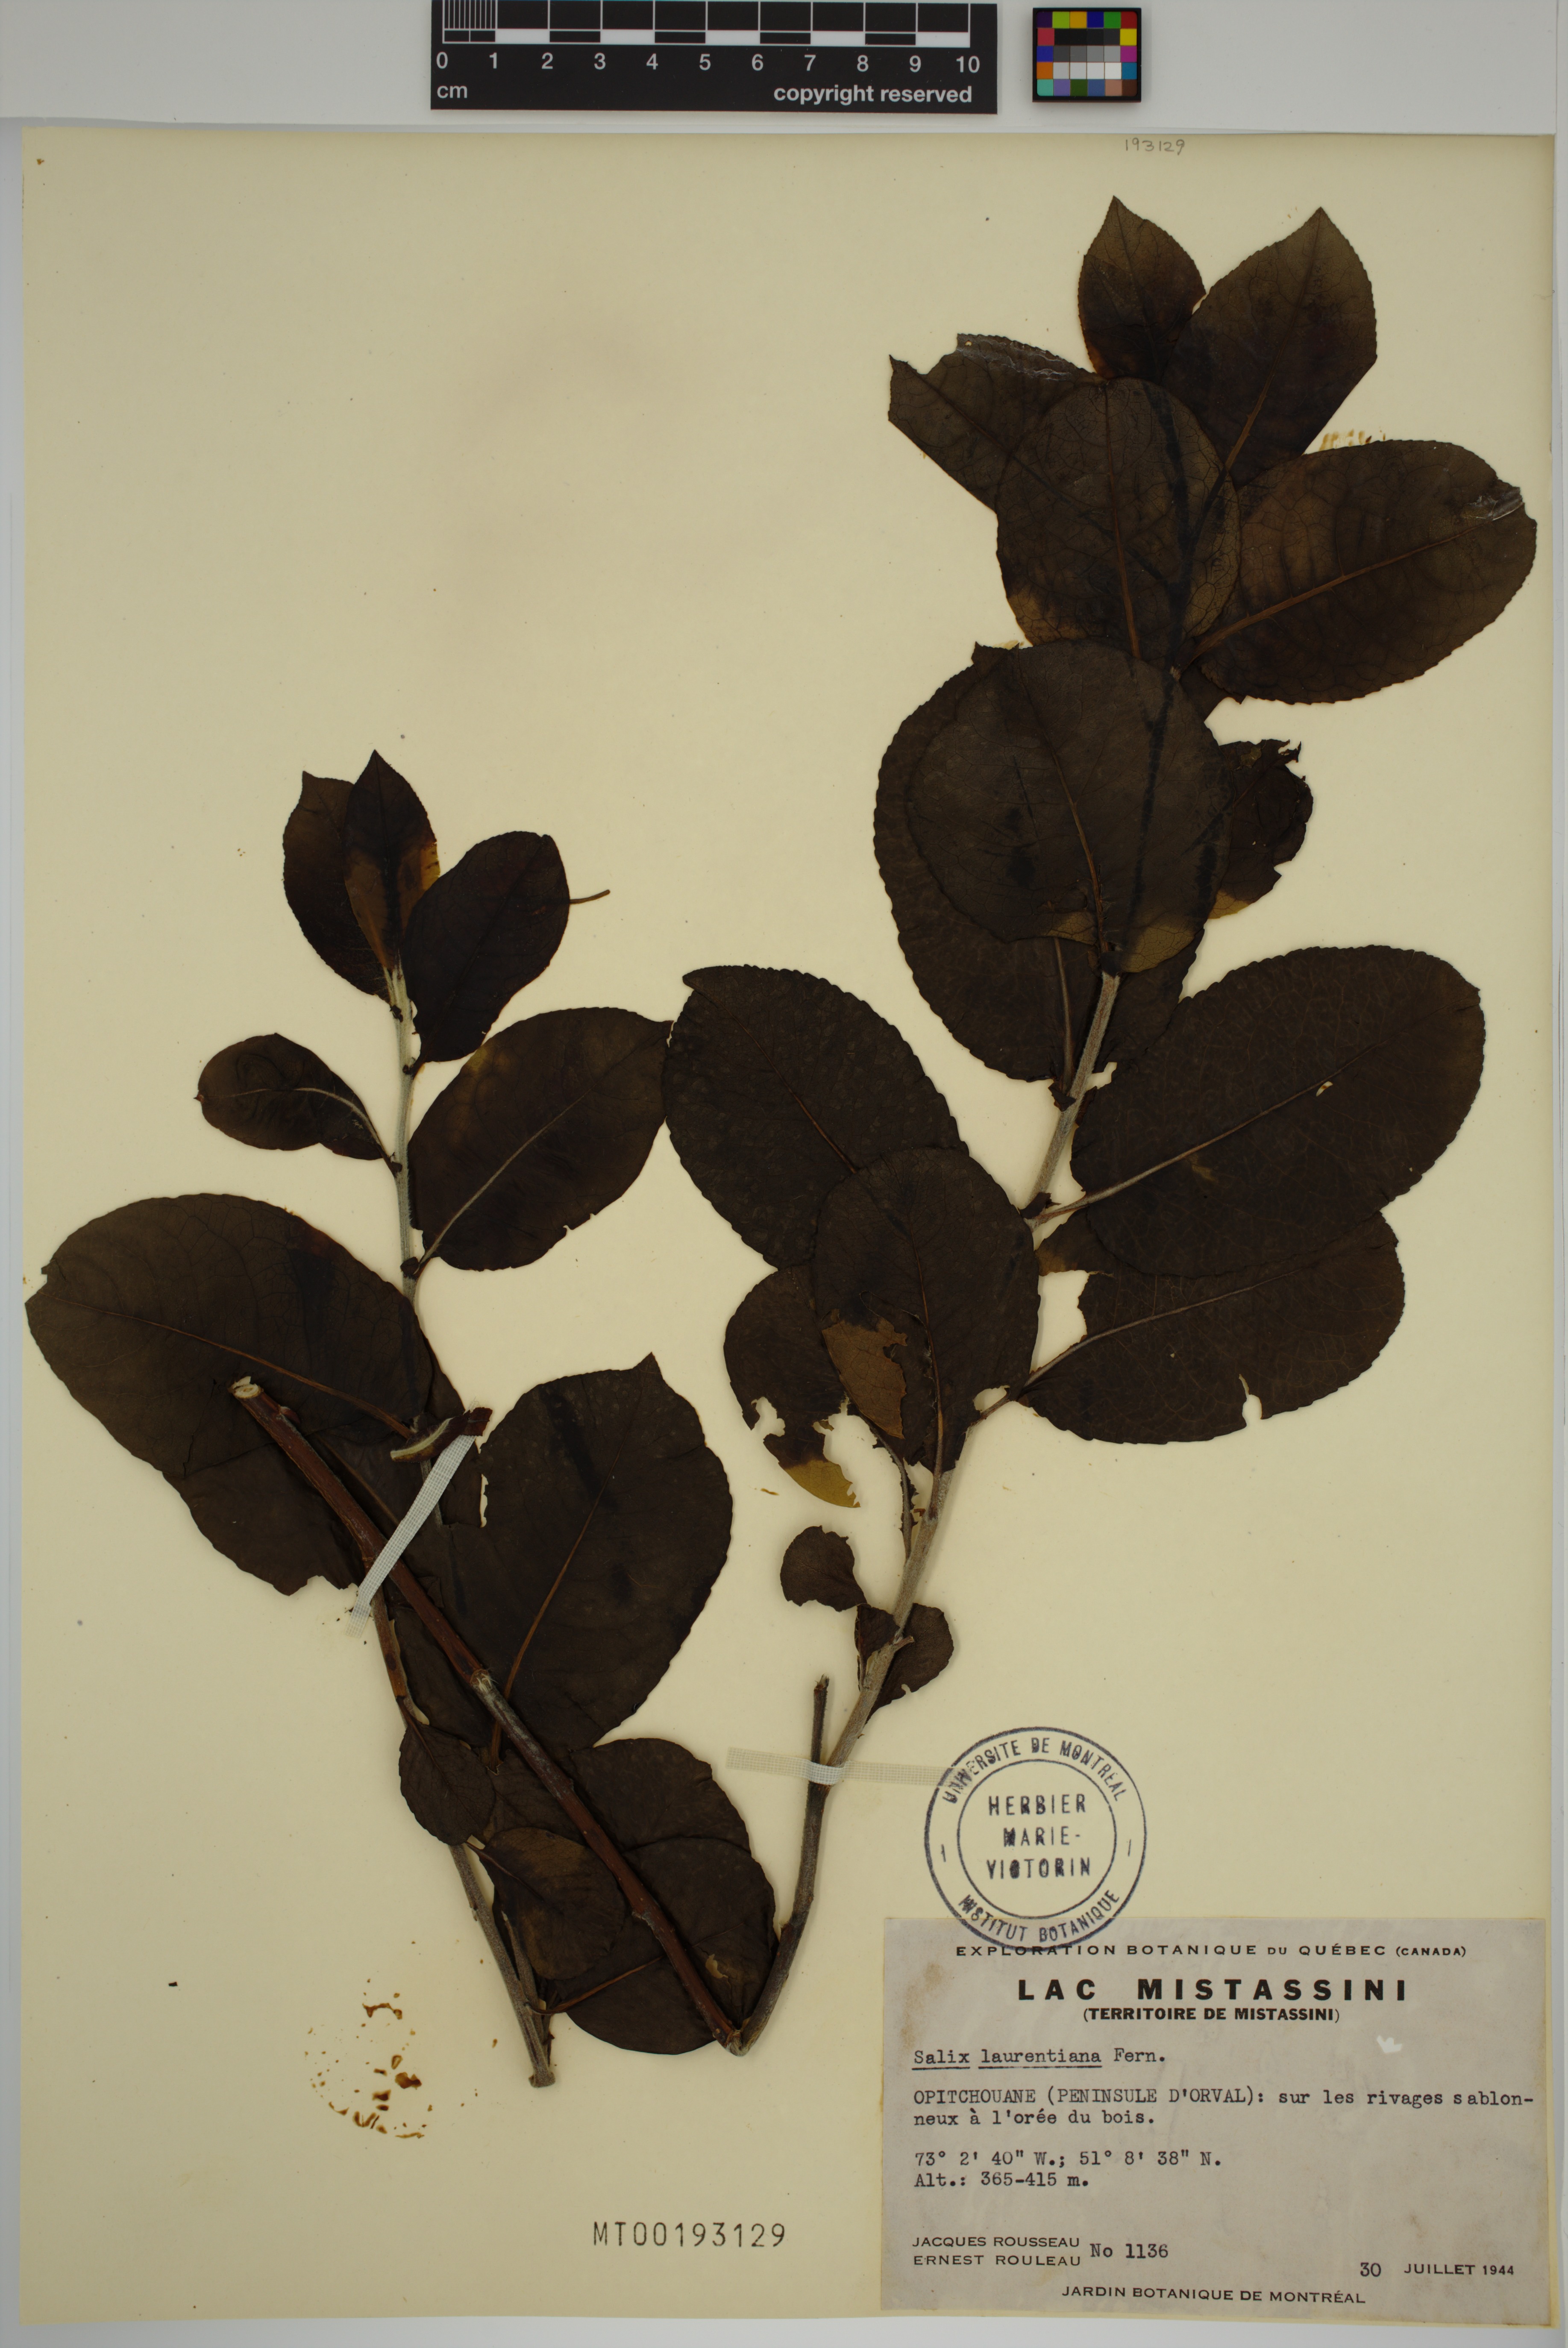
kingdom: Plantae
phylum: Tracheophyta
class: Magnoliopsida
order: Malpighiales
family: Salicaceae
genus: Salix
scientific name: Salix laurentiana
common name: Gulf of st. lawrence willow
